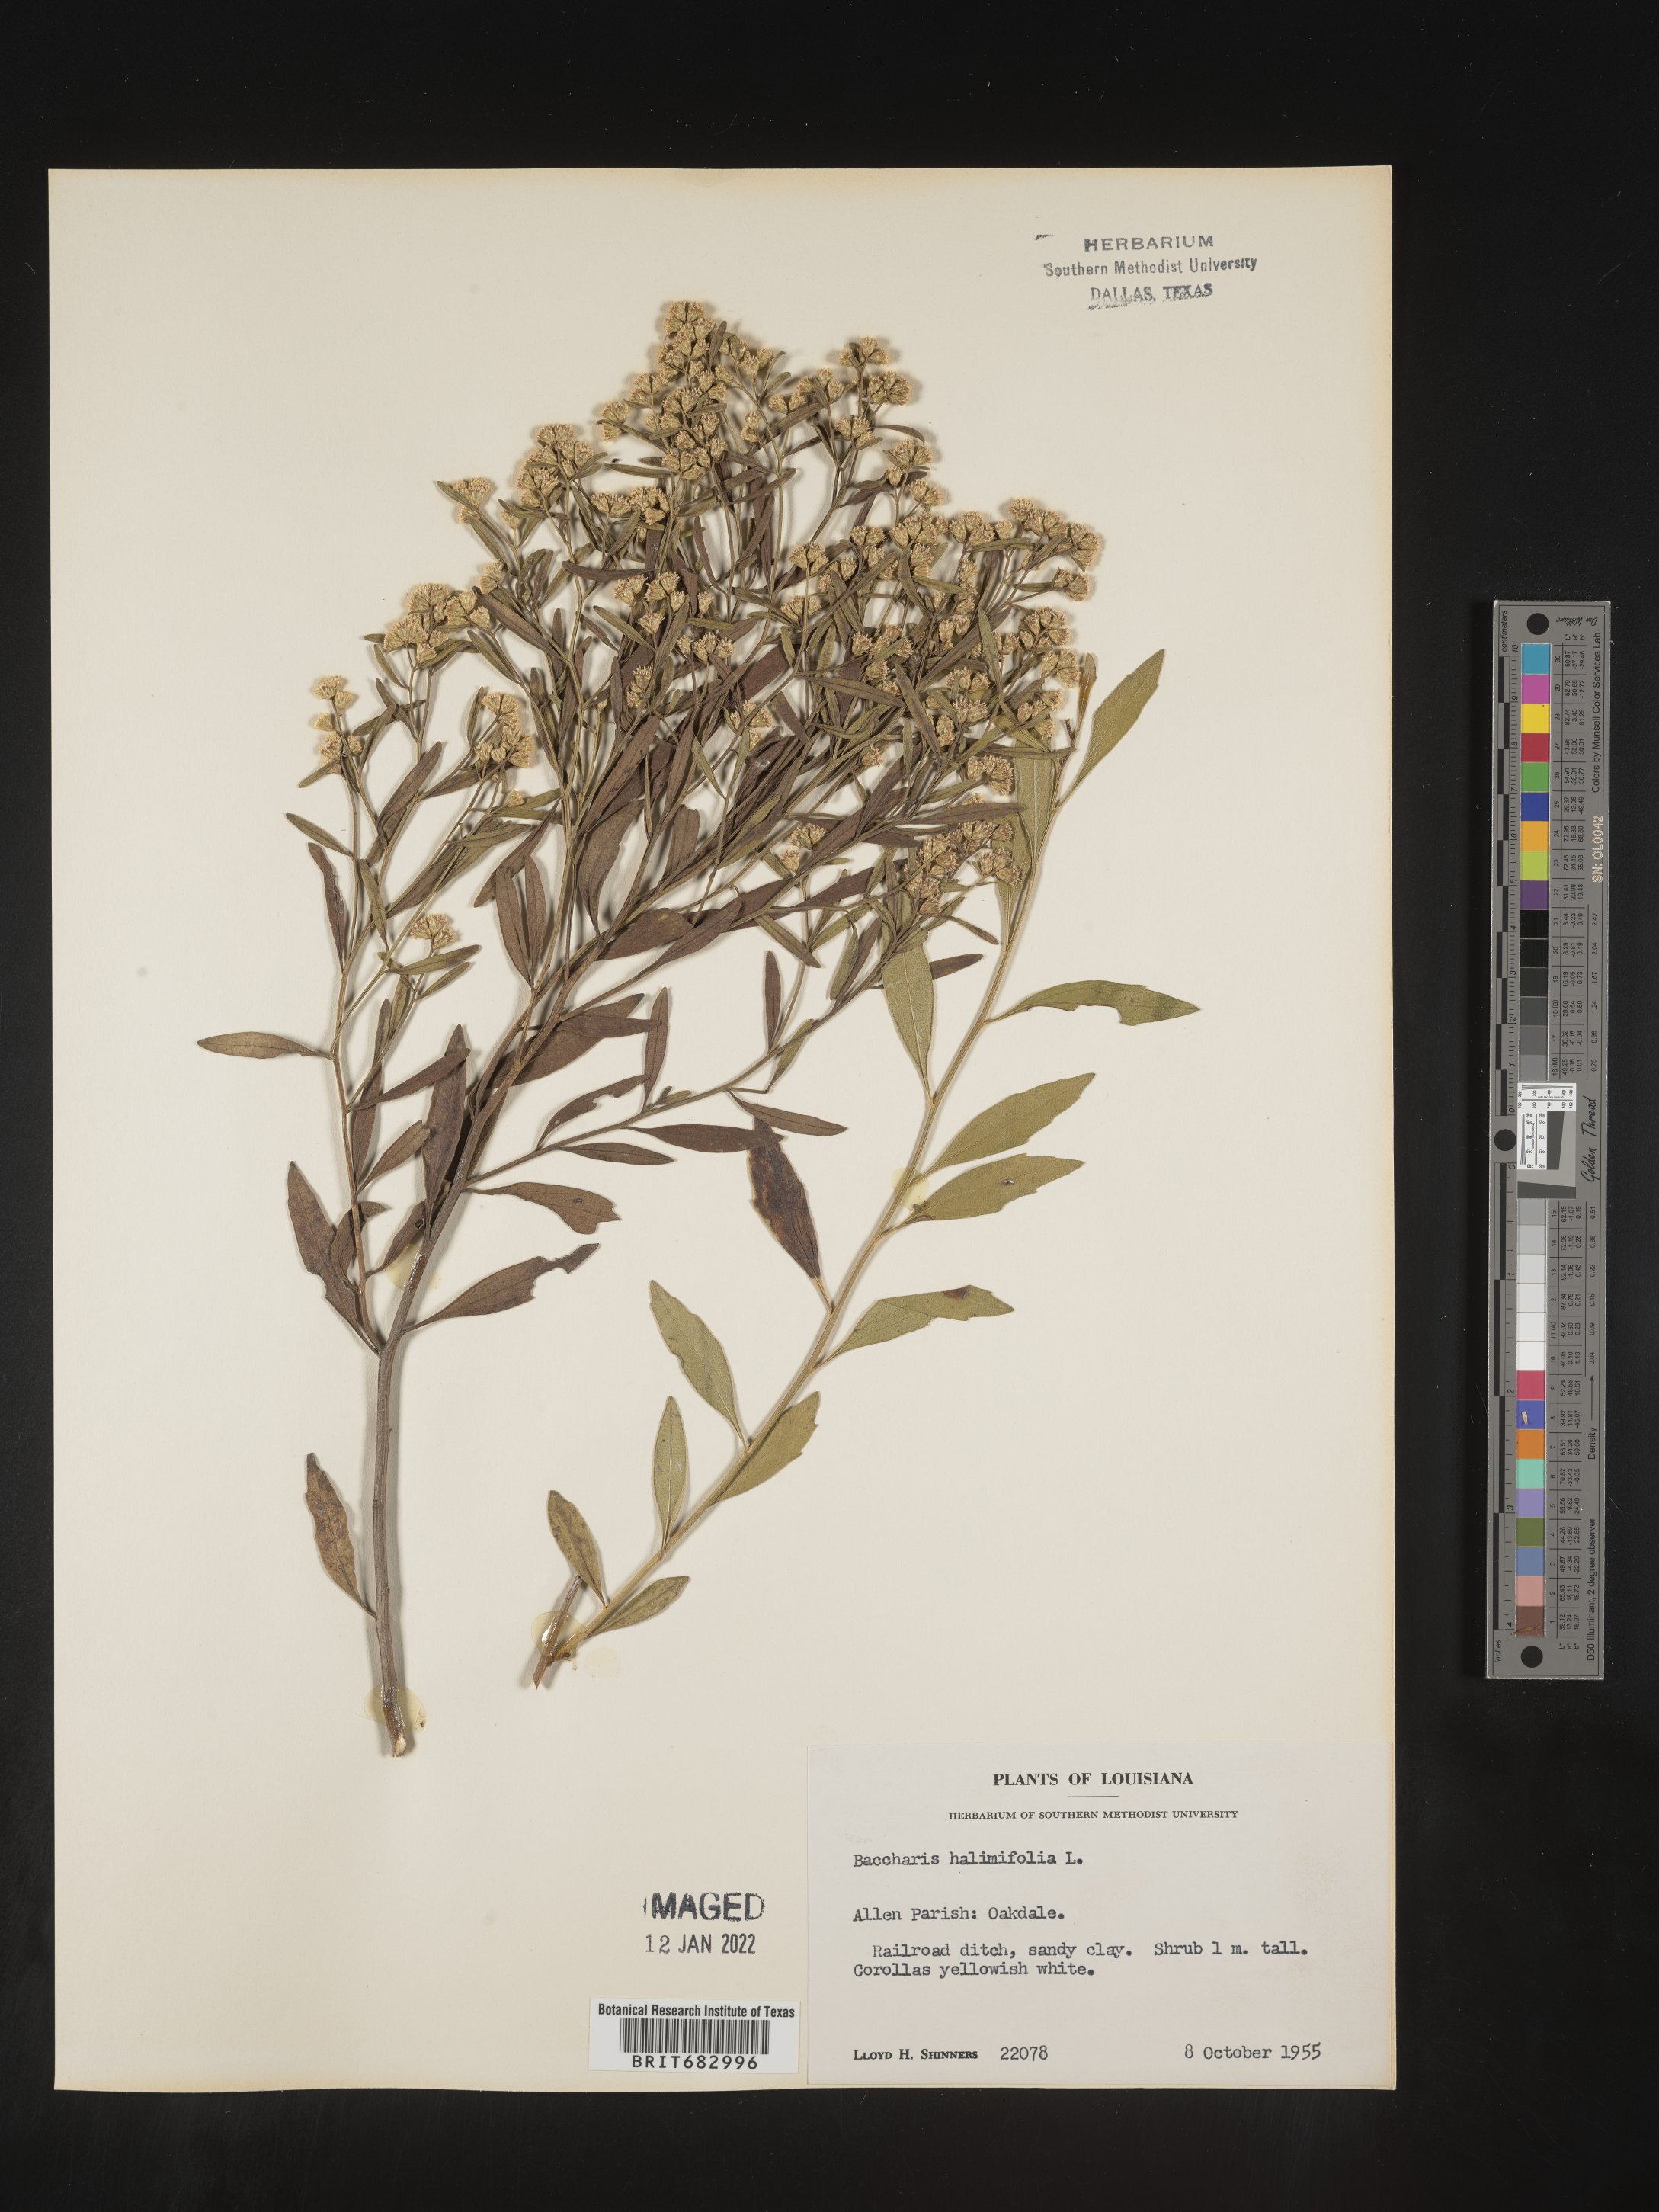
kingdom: Plantae
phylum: Tracheophyta
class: Magnoliopsida
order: Asterales
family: Asteraceae
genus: Nidorella
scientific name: Nidorella ivifolia
